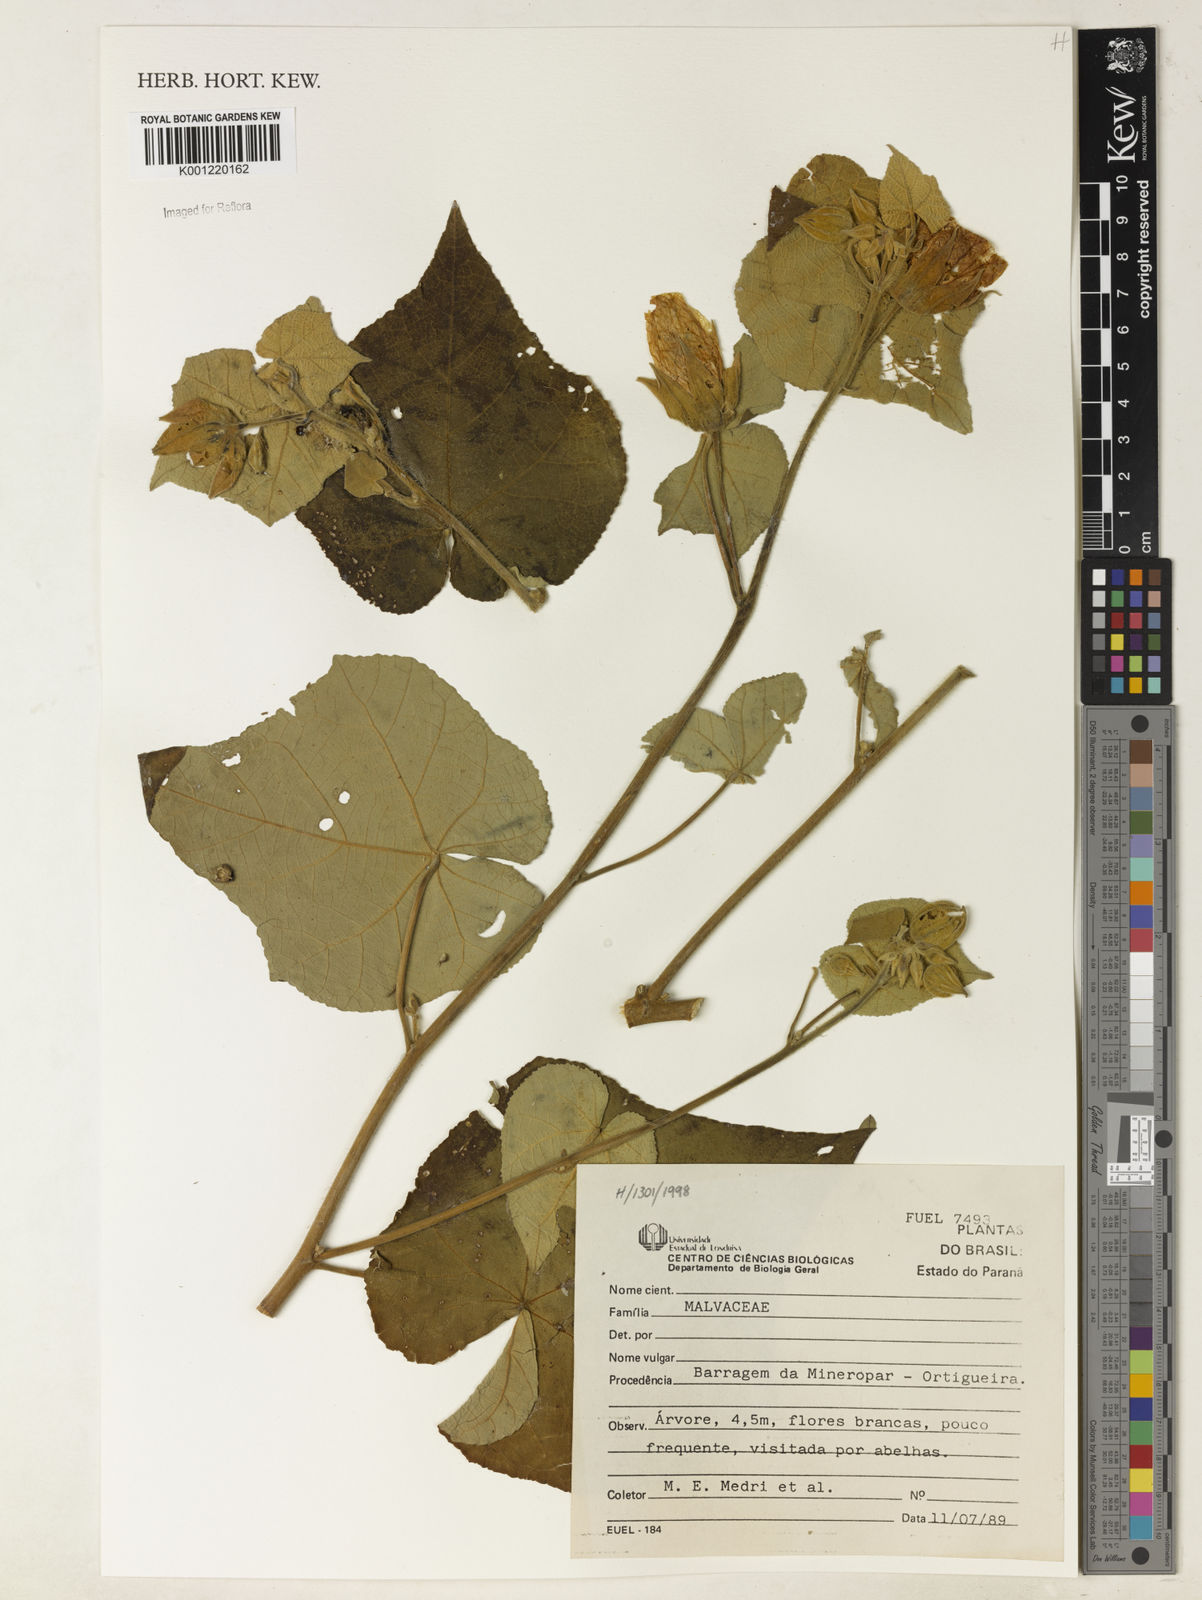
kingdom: Plantae
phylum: Tracheophyta
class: Magnoliopsida
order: Malvales
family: Malvaceae
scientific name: Malvaceae
